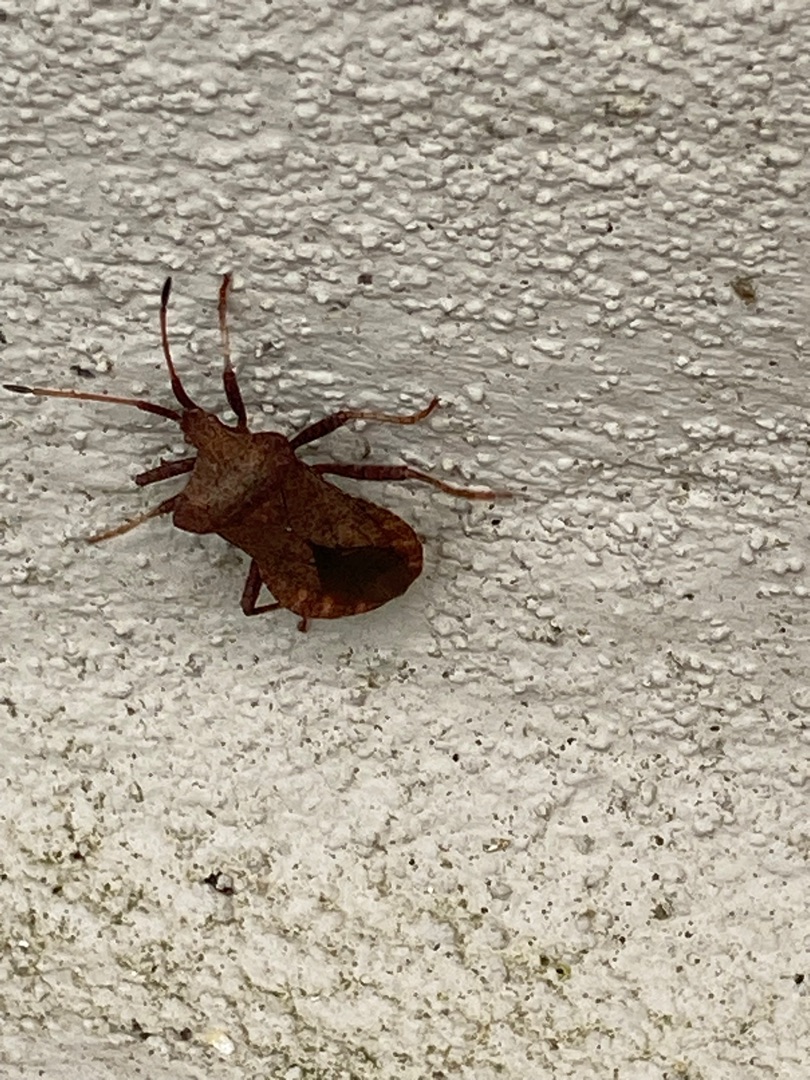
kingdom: Animalia
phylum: Arthropoda
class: Insecta
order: Hemiptera
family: Coreidae
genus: Coreus
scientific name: Coreus marginatus
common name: Skræppetæge
